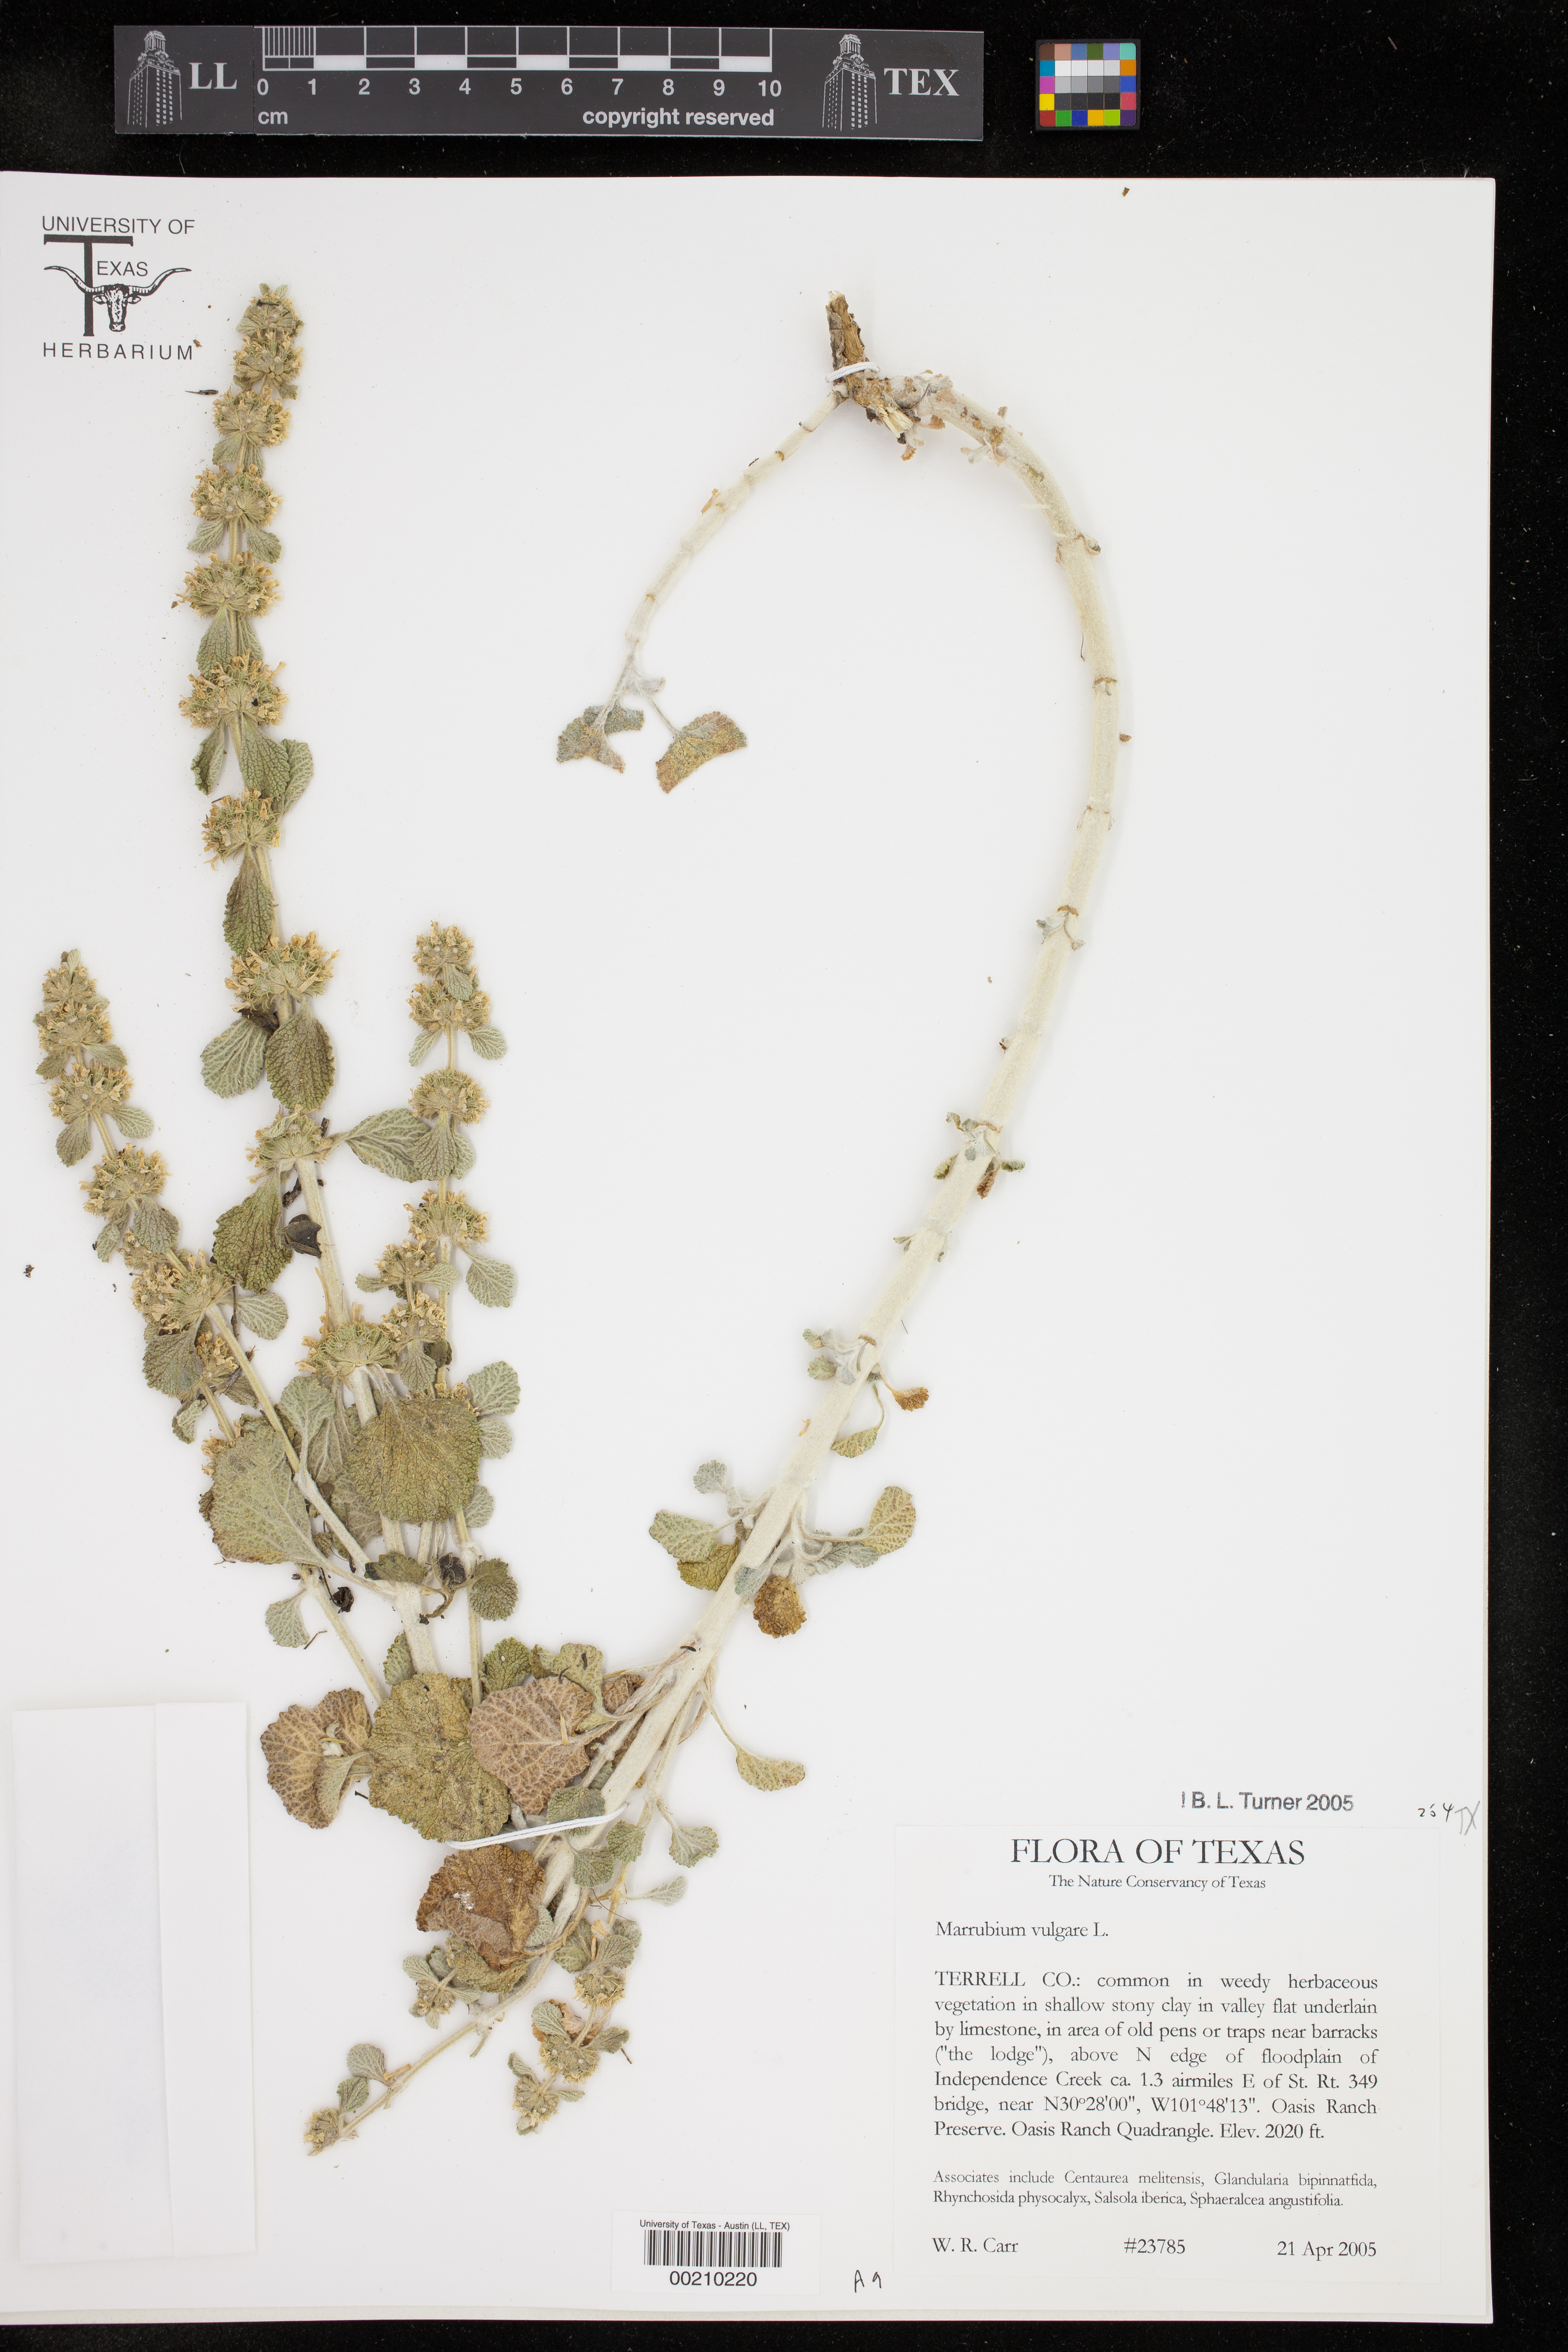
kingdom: Plantae
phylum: Tracheophyta
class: Magnoliopsida
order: Lamiales
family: Lamiaceae
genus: Marrubium
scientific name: Marrubium vulgare
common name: Horehound
